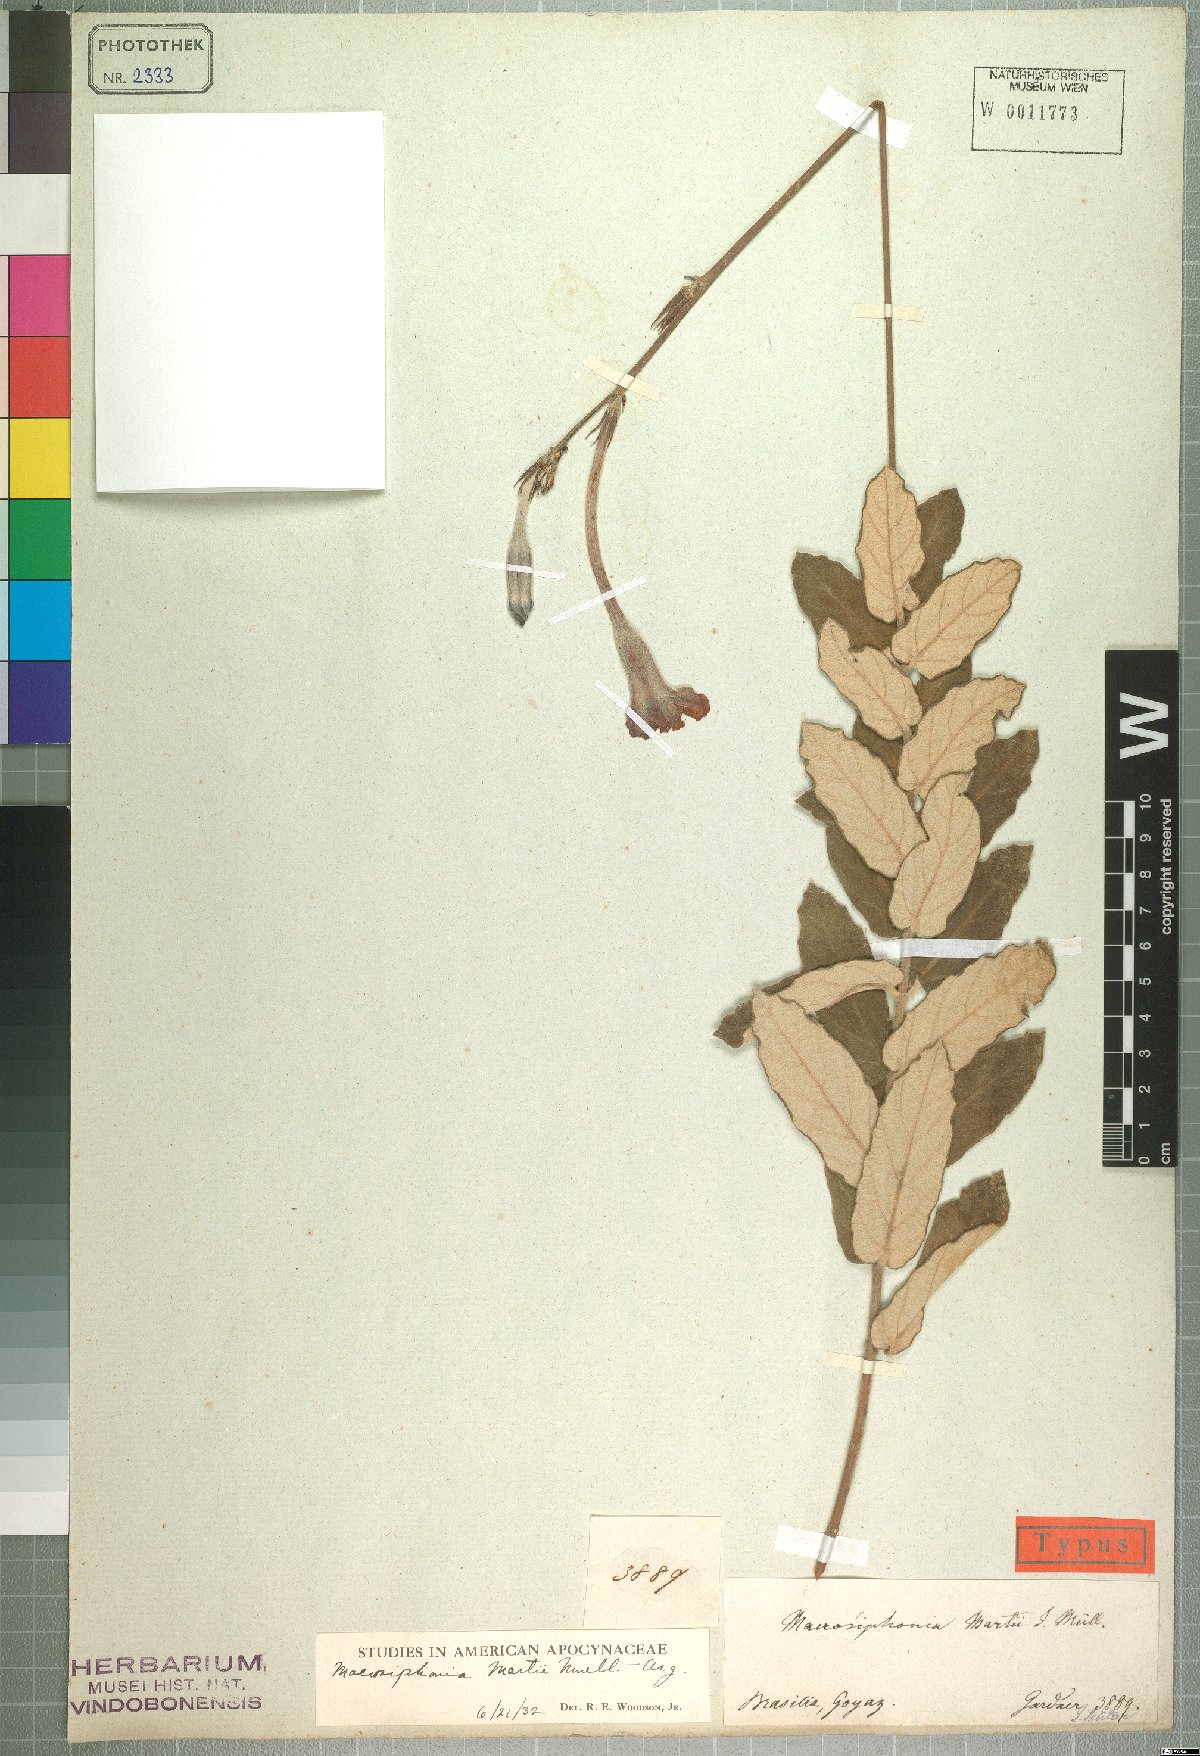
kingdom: Plantae
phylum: Tracheophyta
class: Magnoliopsida
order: Gentianales
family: Apocynaceae
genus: Mandevilla
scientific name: Mandevilla martii
